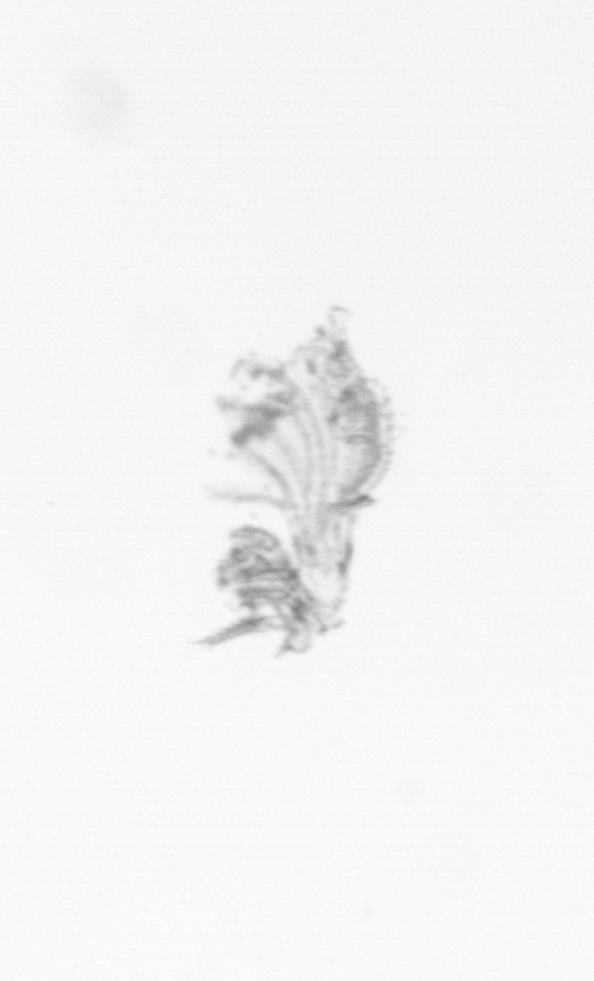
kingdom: Animalia
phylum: Arthropoda
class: Maxillopoda
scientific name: Maxillopoda
